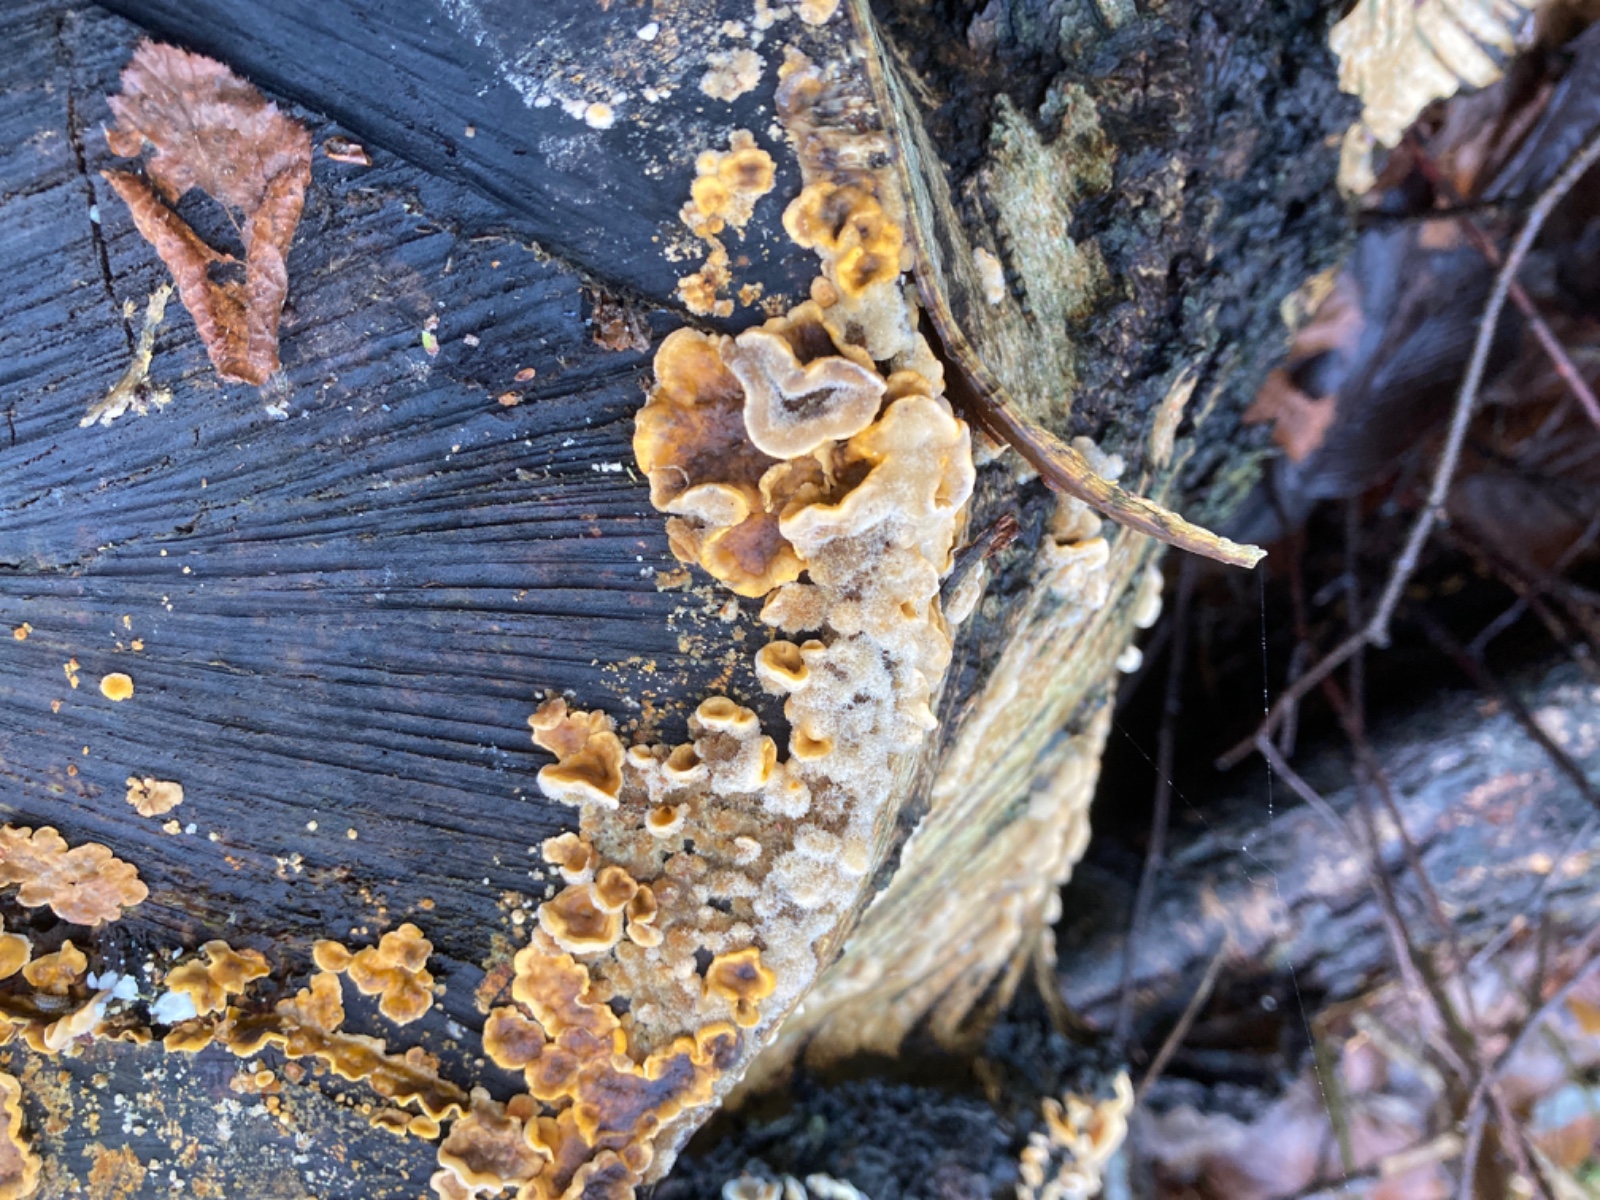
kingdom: Fungi
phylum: Basidiomycota
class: Agaricomycetes
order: Russulales
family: Stereaceae
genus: Stereum
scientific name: Stereum hirsutum
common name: håret lædersvamp
